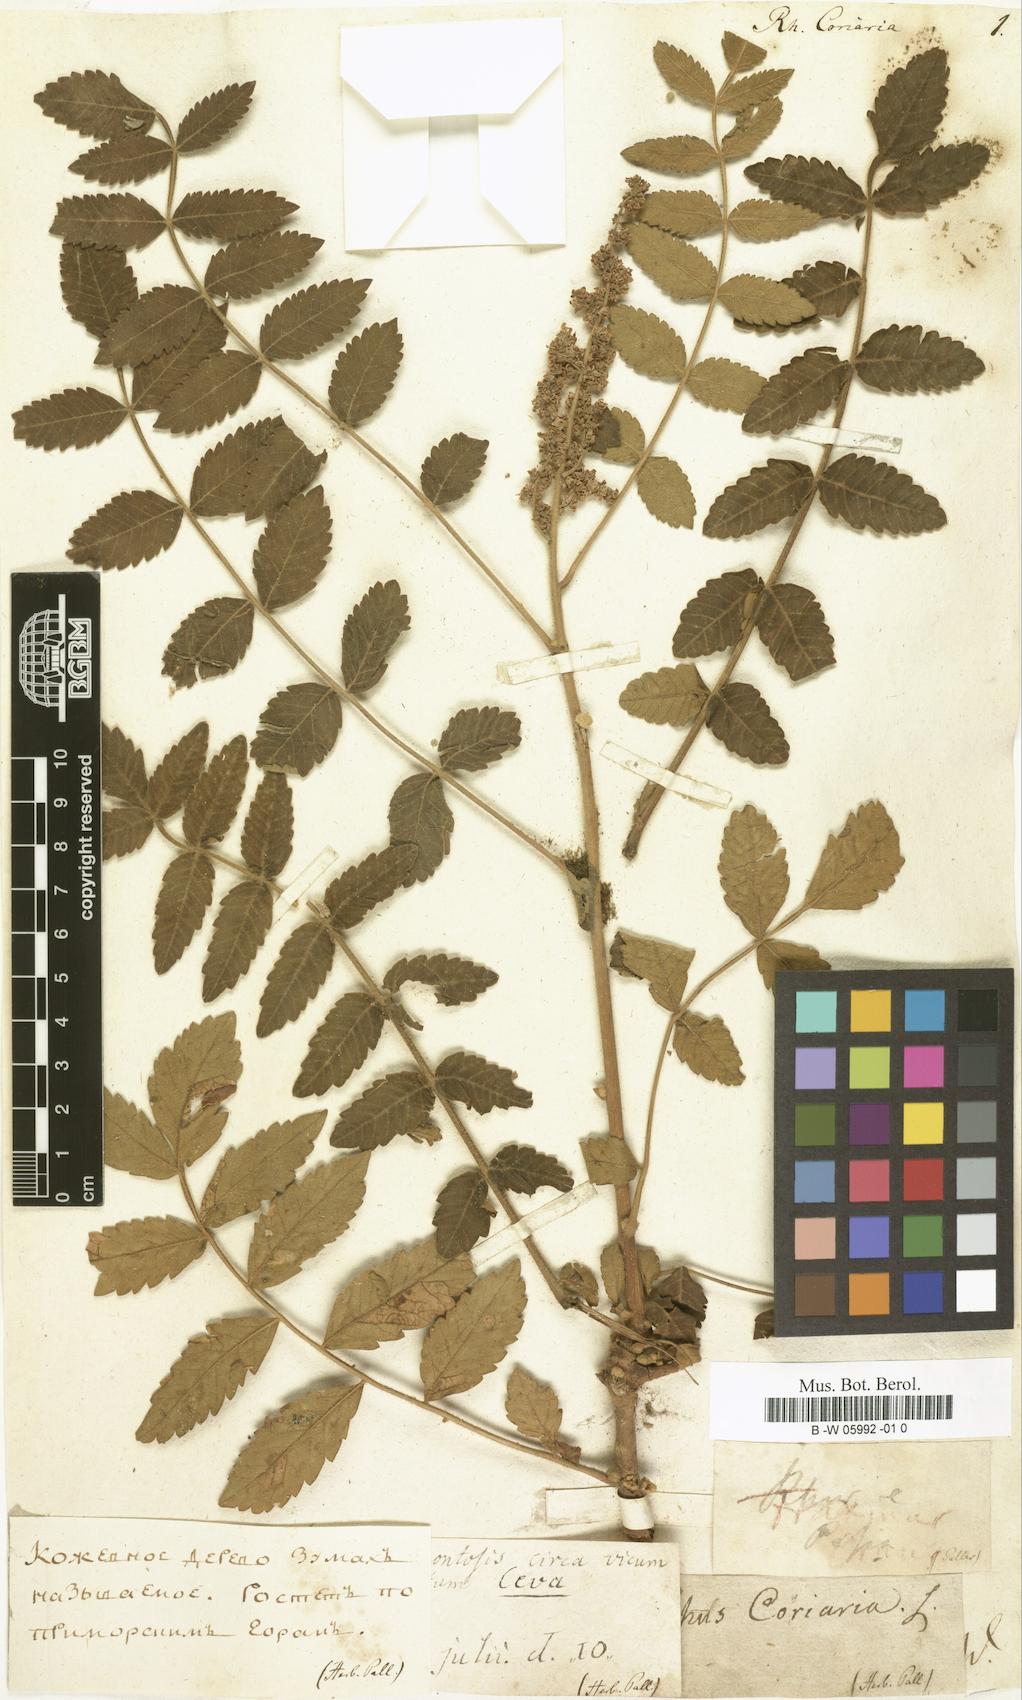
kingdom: Plantae
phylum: Tracheophyta
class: Magnoliopsida
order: Sapindales
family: Anacardiaceae
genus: Rhus
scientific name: Rhus coriaria
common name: Tanner's sumach
